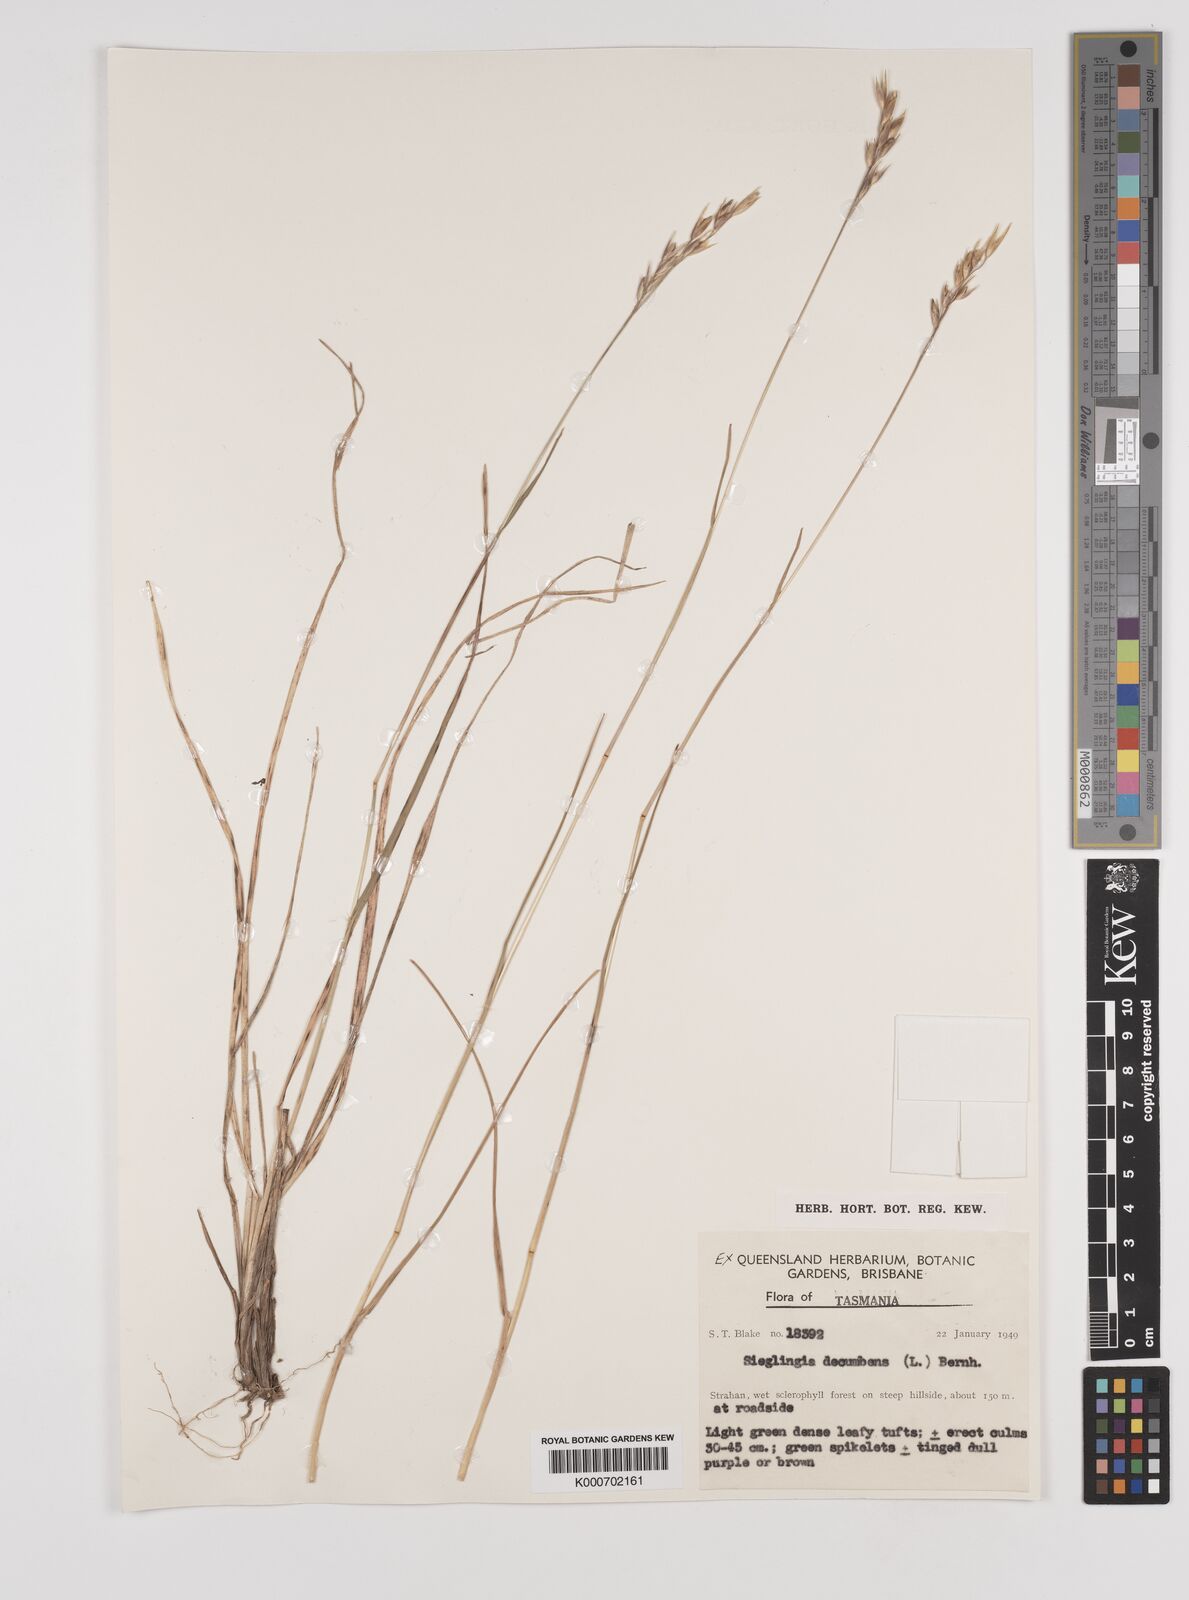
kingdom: Plantae
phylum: Tracheophyta
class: Liliopsida
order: Poales
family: Poaceae
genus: Danthonia
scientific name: Danthonia decumbens
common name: Common heathgrass
